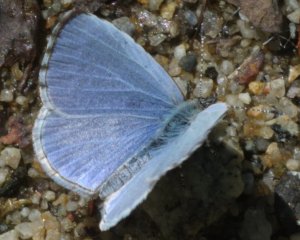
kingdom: Animalia
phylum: Arthropoda
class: Insecta
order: Lepidoptera
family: Lycaenidae
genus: Celastrina
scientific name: Celastrina lucia
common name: Northern Spring Azure
